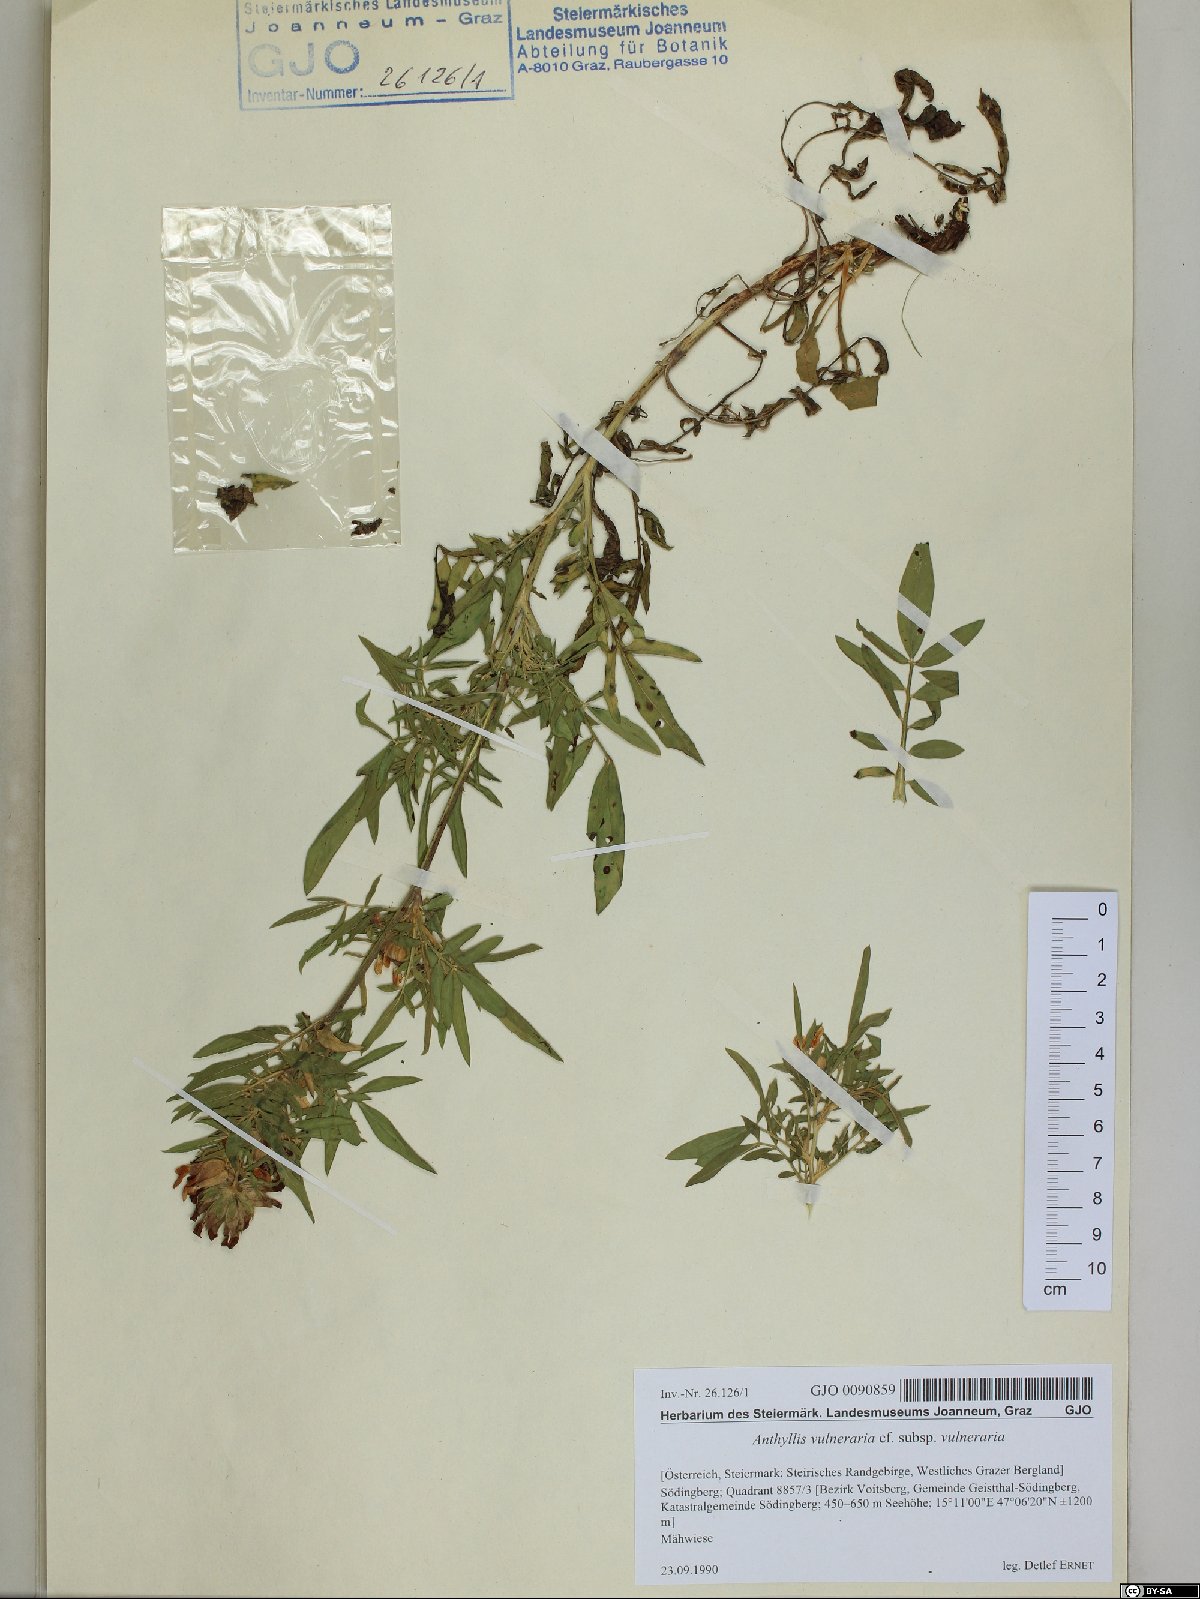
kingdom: Plantae
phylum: Tracheophyta
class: Magnoliopsida
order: Fabales
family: Fabaceae
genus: Anthyllis
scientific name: Anthyllis vulneraria
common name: Kidney vetch
